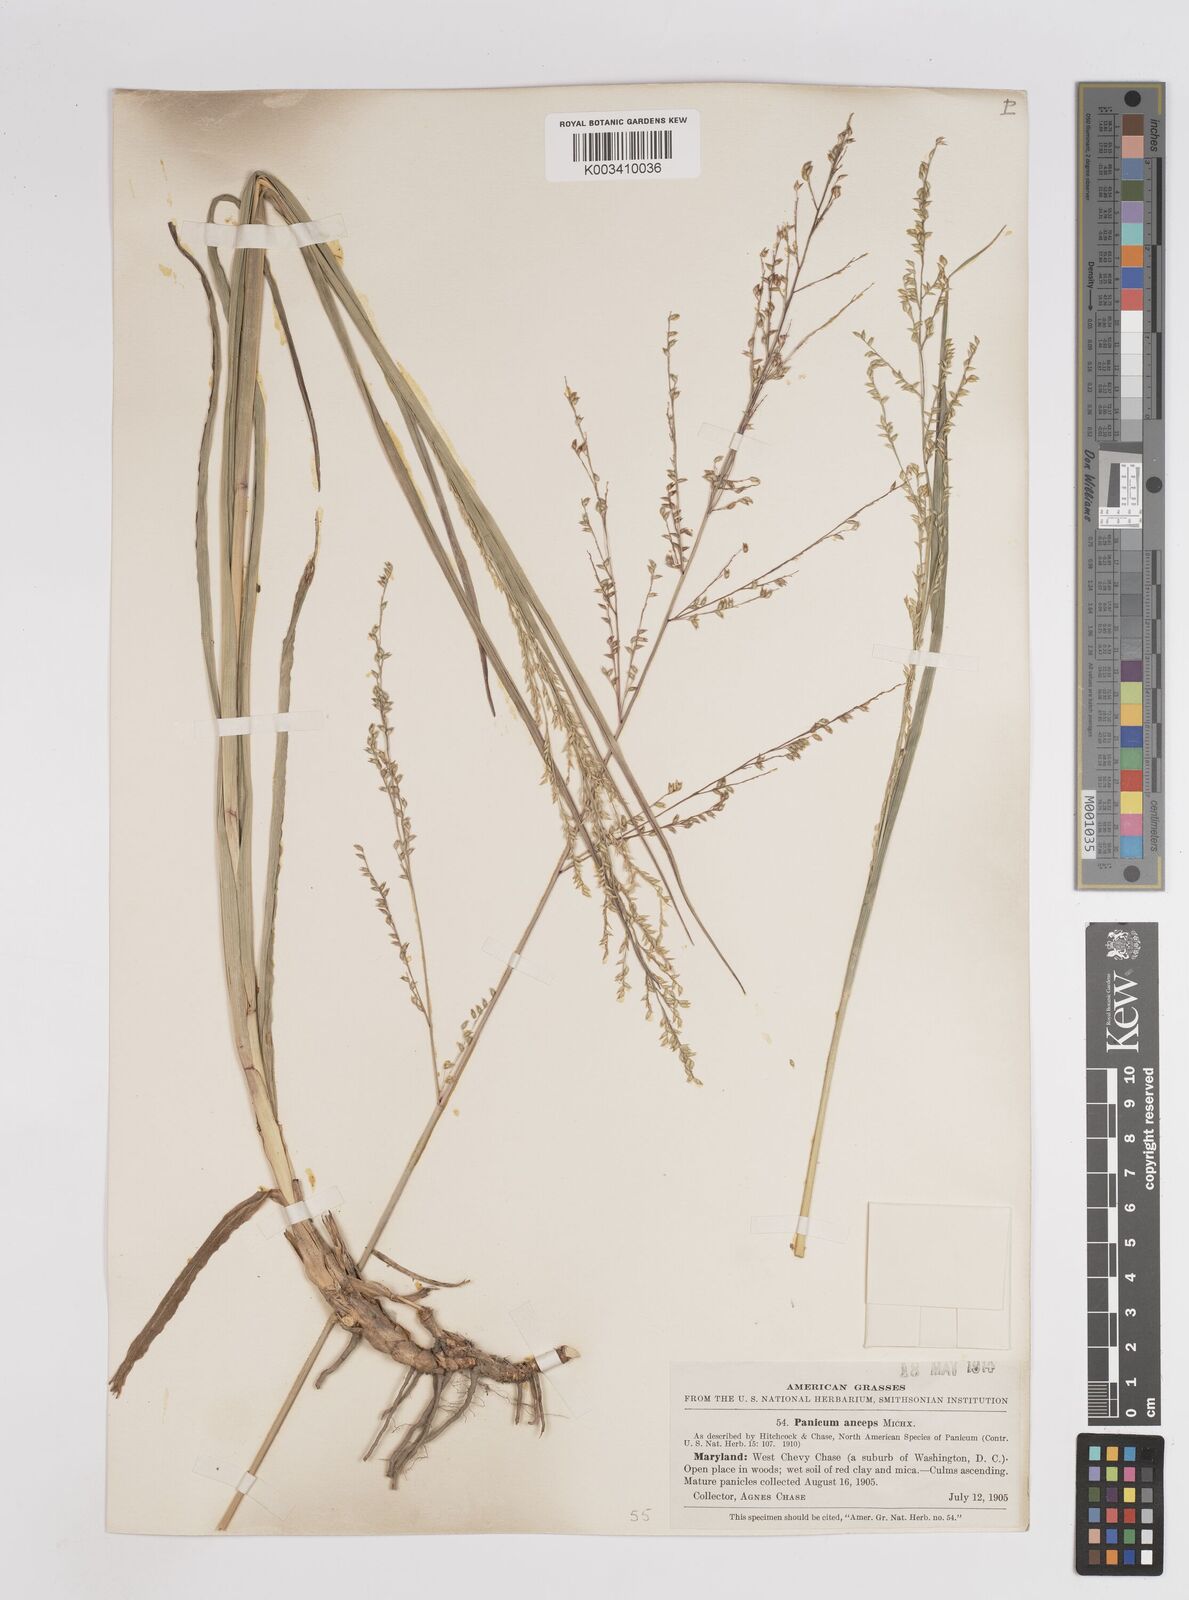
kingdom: Plantae
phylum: Tracheophyta
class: Liliopsida
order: Poales
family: Poaceae
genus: Coleataenia
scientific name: Coleataenia anceps
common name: Beaked panic grass
